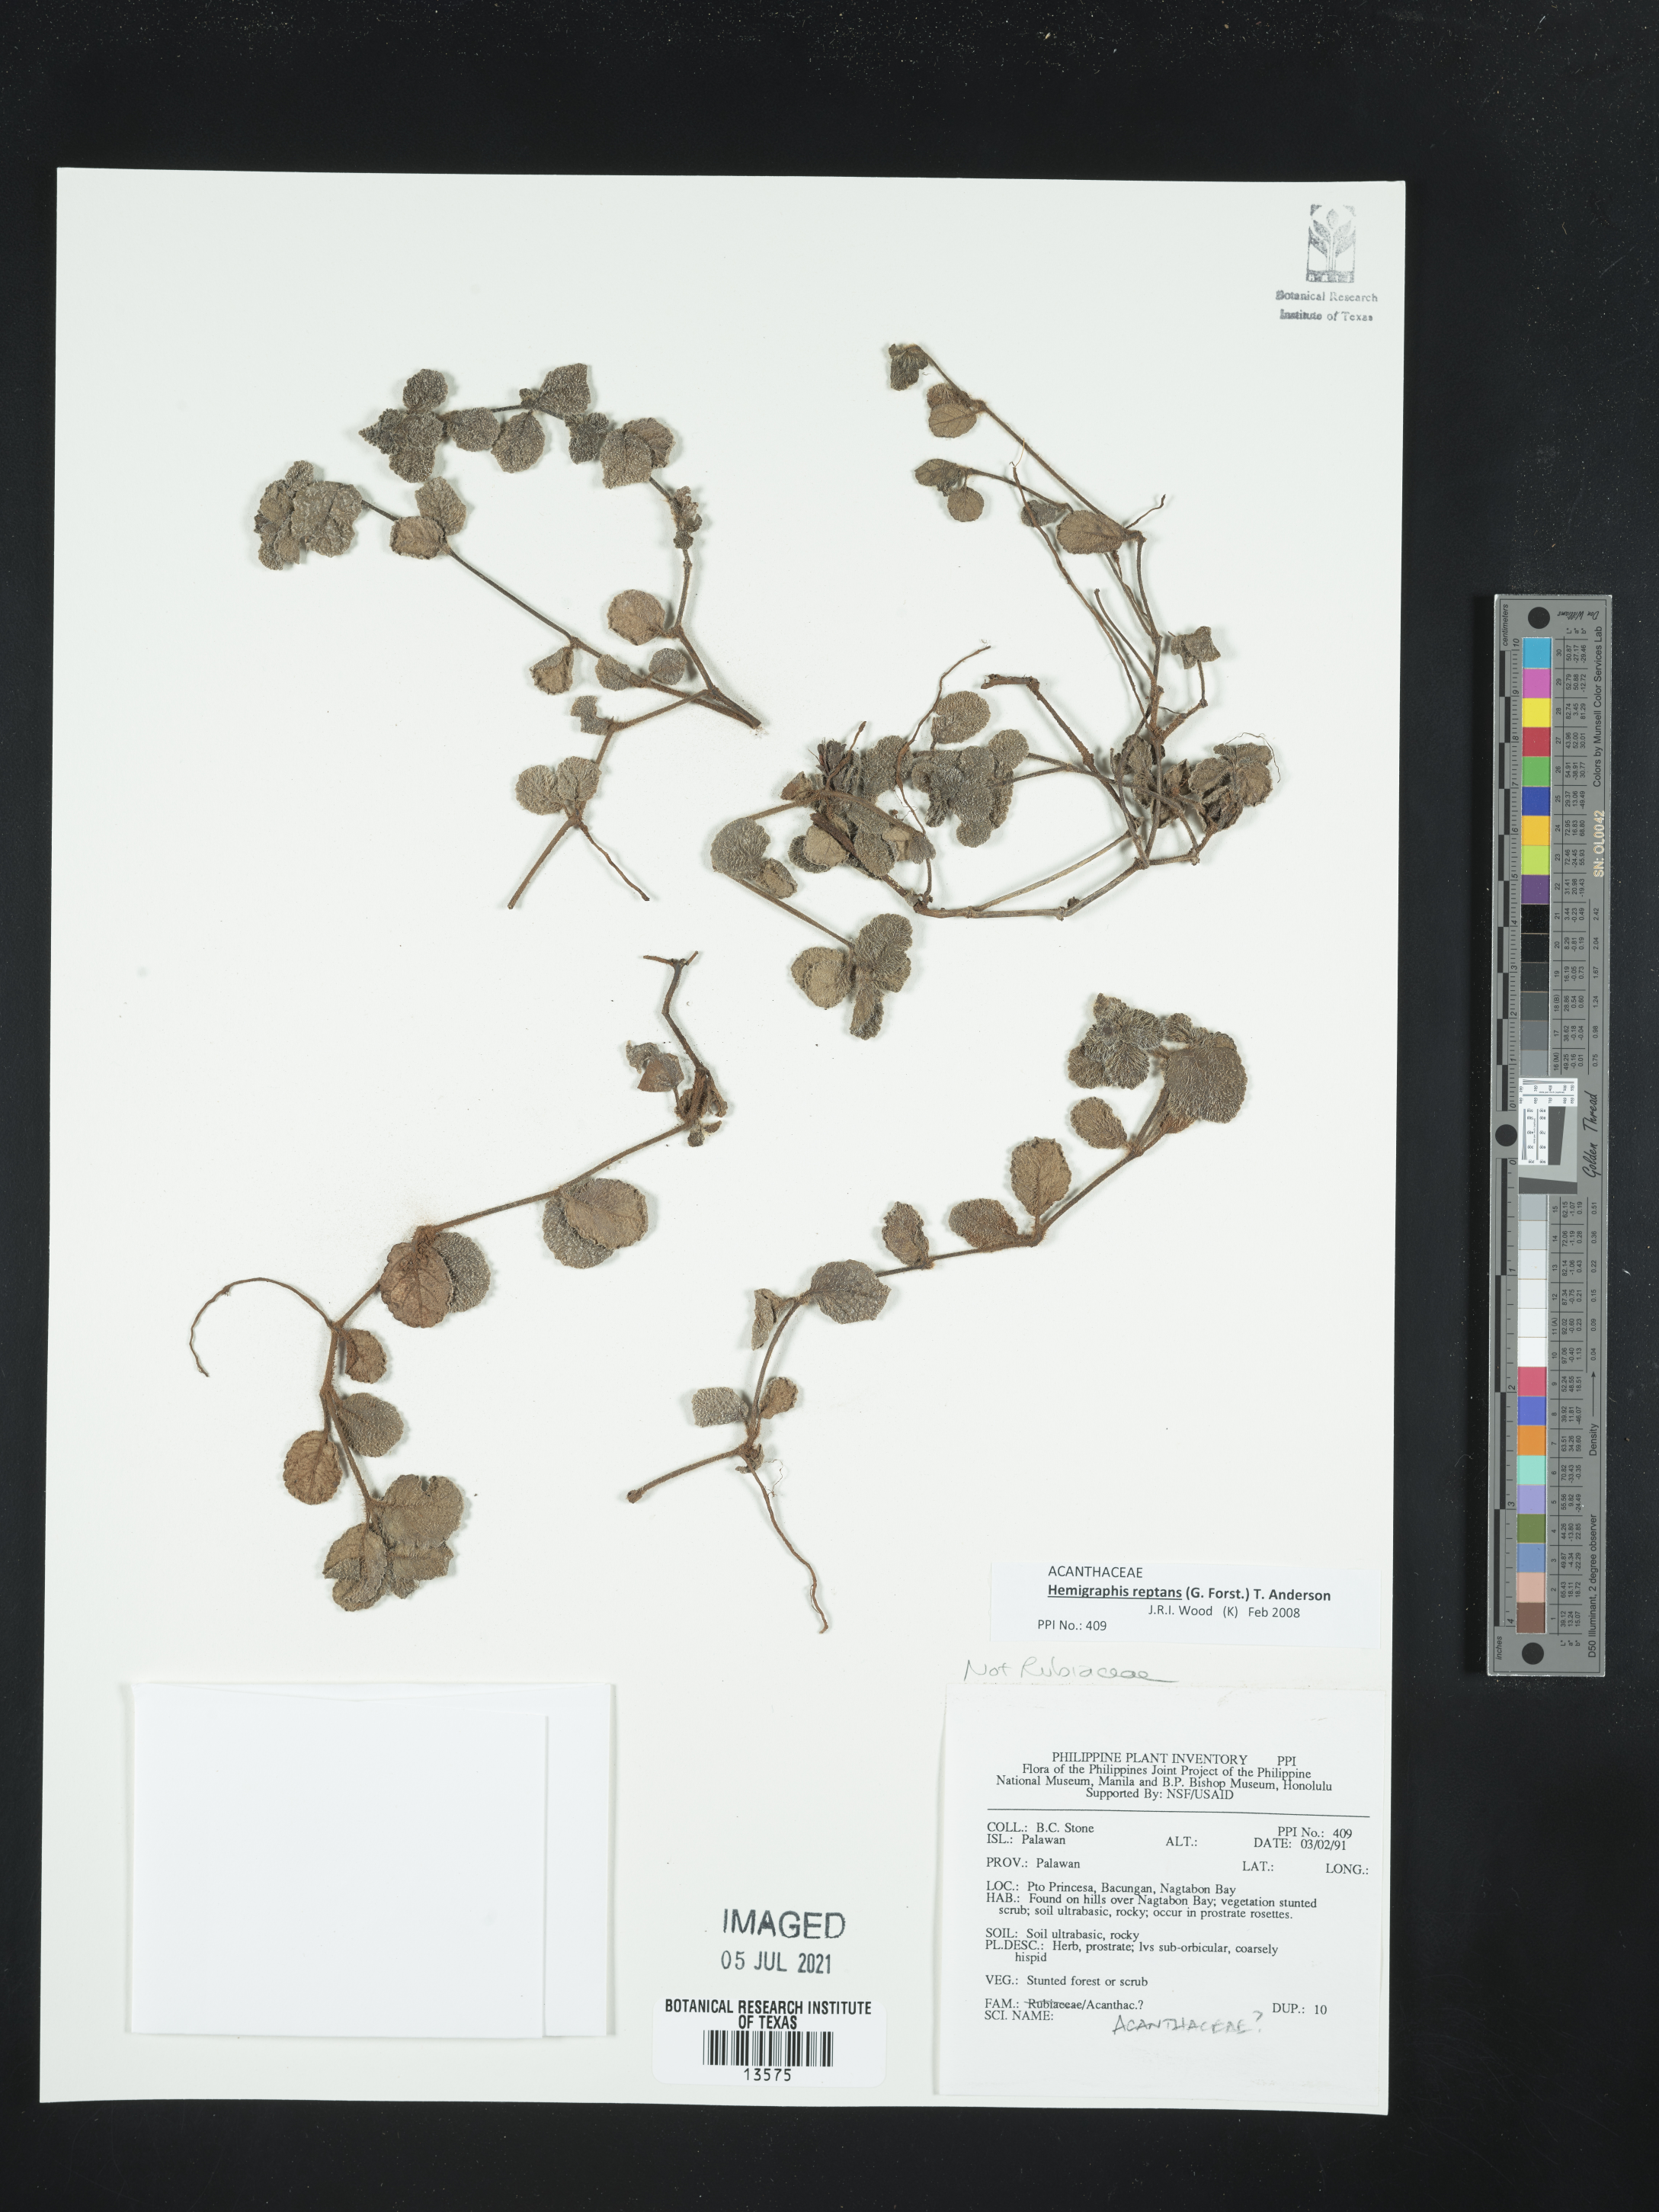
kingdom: Plantae
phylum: Tracheophyta
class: Magnoliopsida
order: Lamiales
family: Acanthaceae
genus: Strobilanthes
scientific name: Strobilanthes reptans
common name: Acanthaceae
